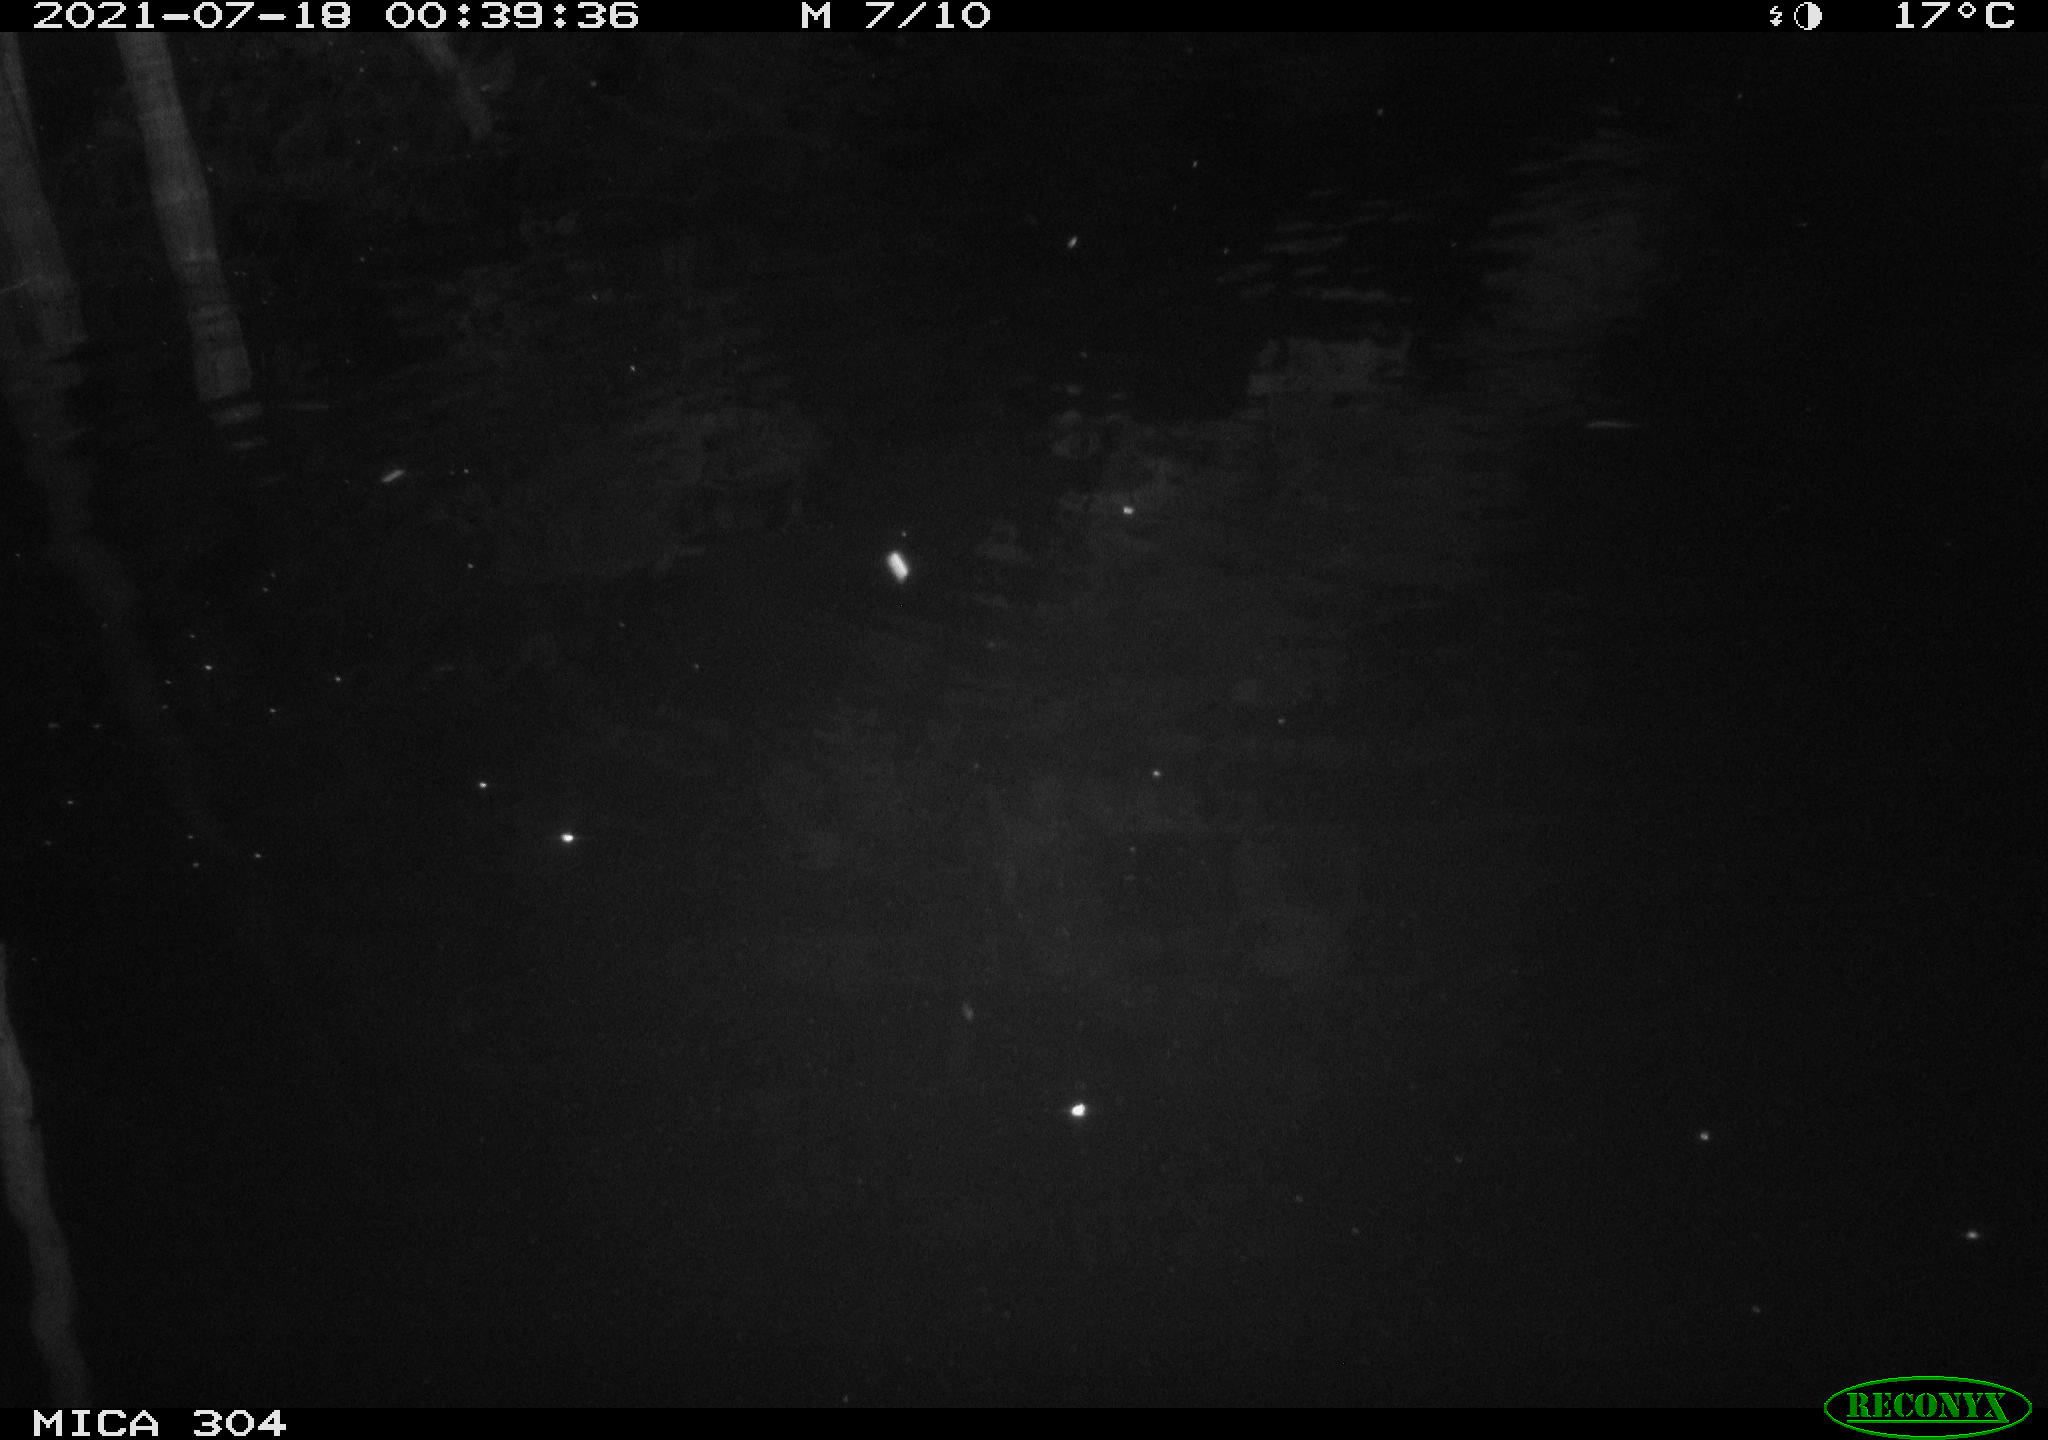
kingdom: Animalia
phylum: Chordata
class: Mammalia
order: Rodentia
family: Muridae
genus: Rattus
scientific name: Rattus norvegicus
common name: Brown rat
